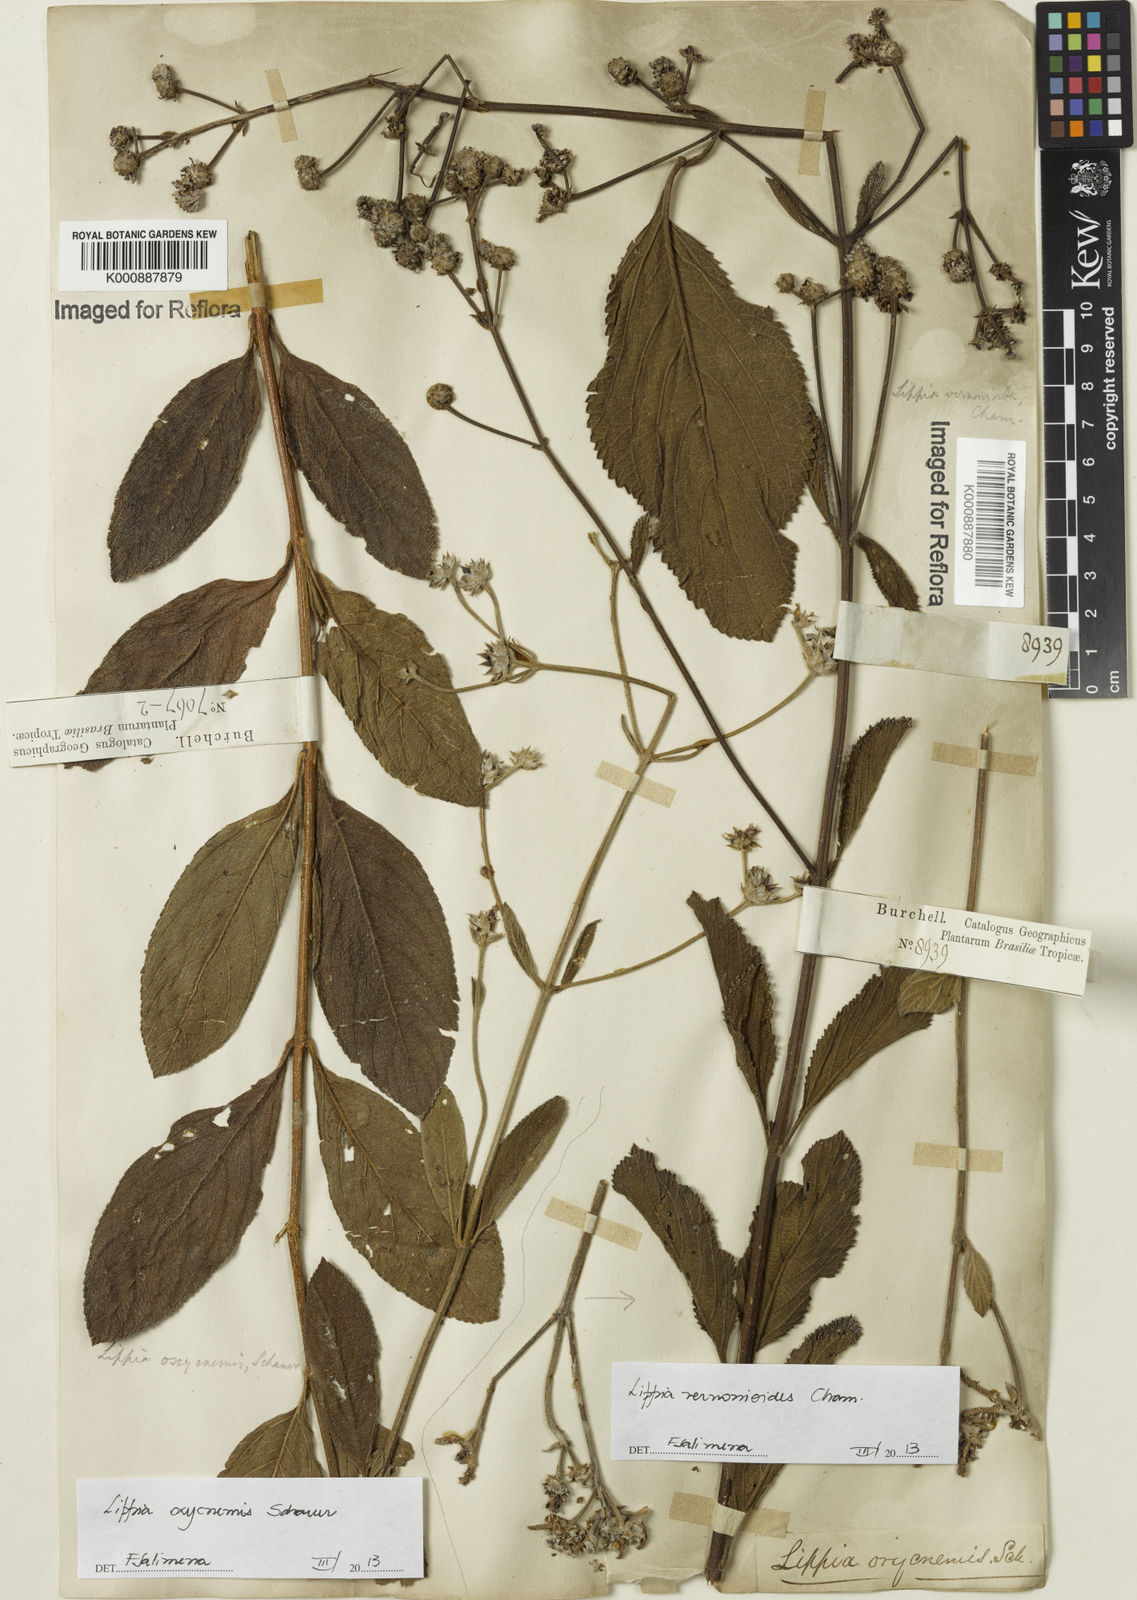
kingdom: Plantae
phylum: Tracheophyta
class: Magnoliopsida
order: Lamiales
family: Verbenaceae
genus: Lippia
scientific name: Lippia vernonioides
